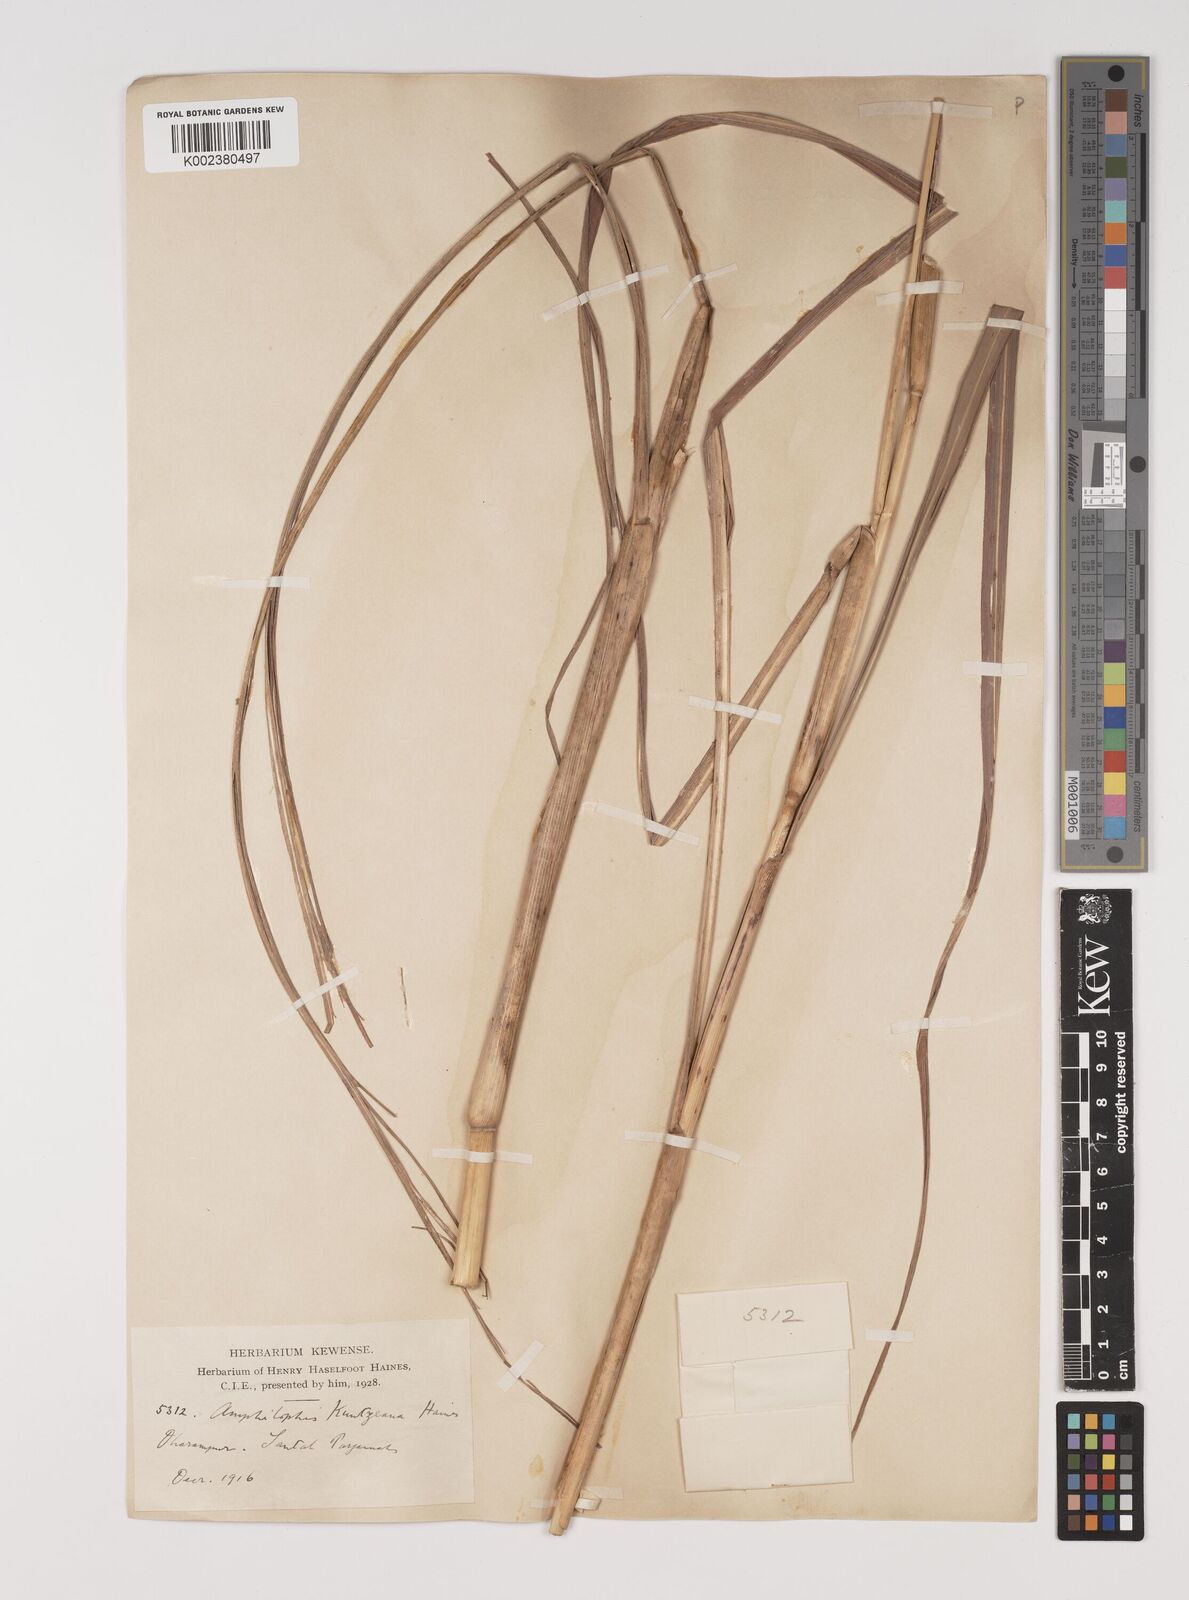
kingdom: Plantae
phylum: Tracheophyta
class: Liliopsida
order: Poales
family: Poaceae
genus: Bothriochloa
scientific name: Bothriochloa kuntzeana
